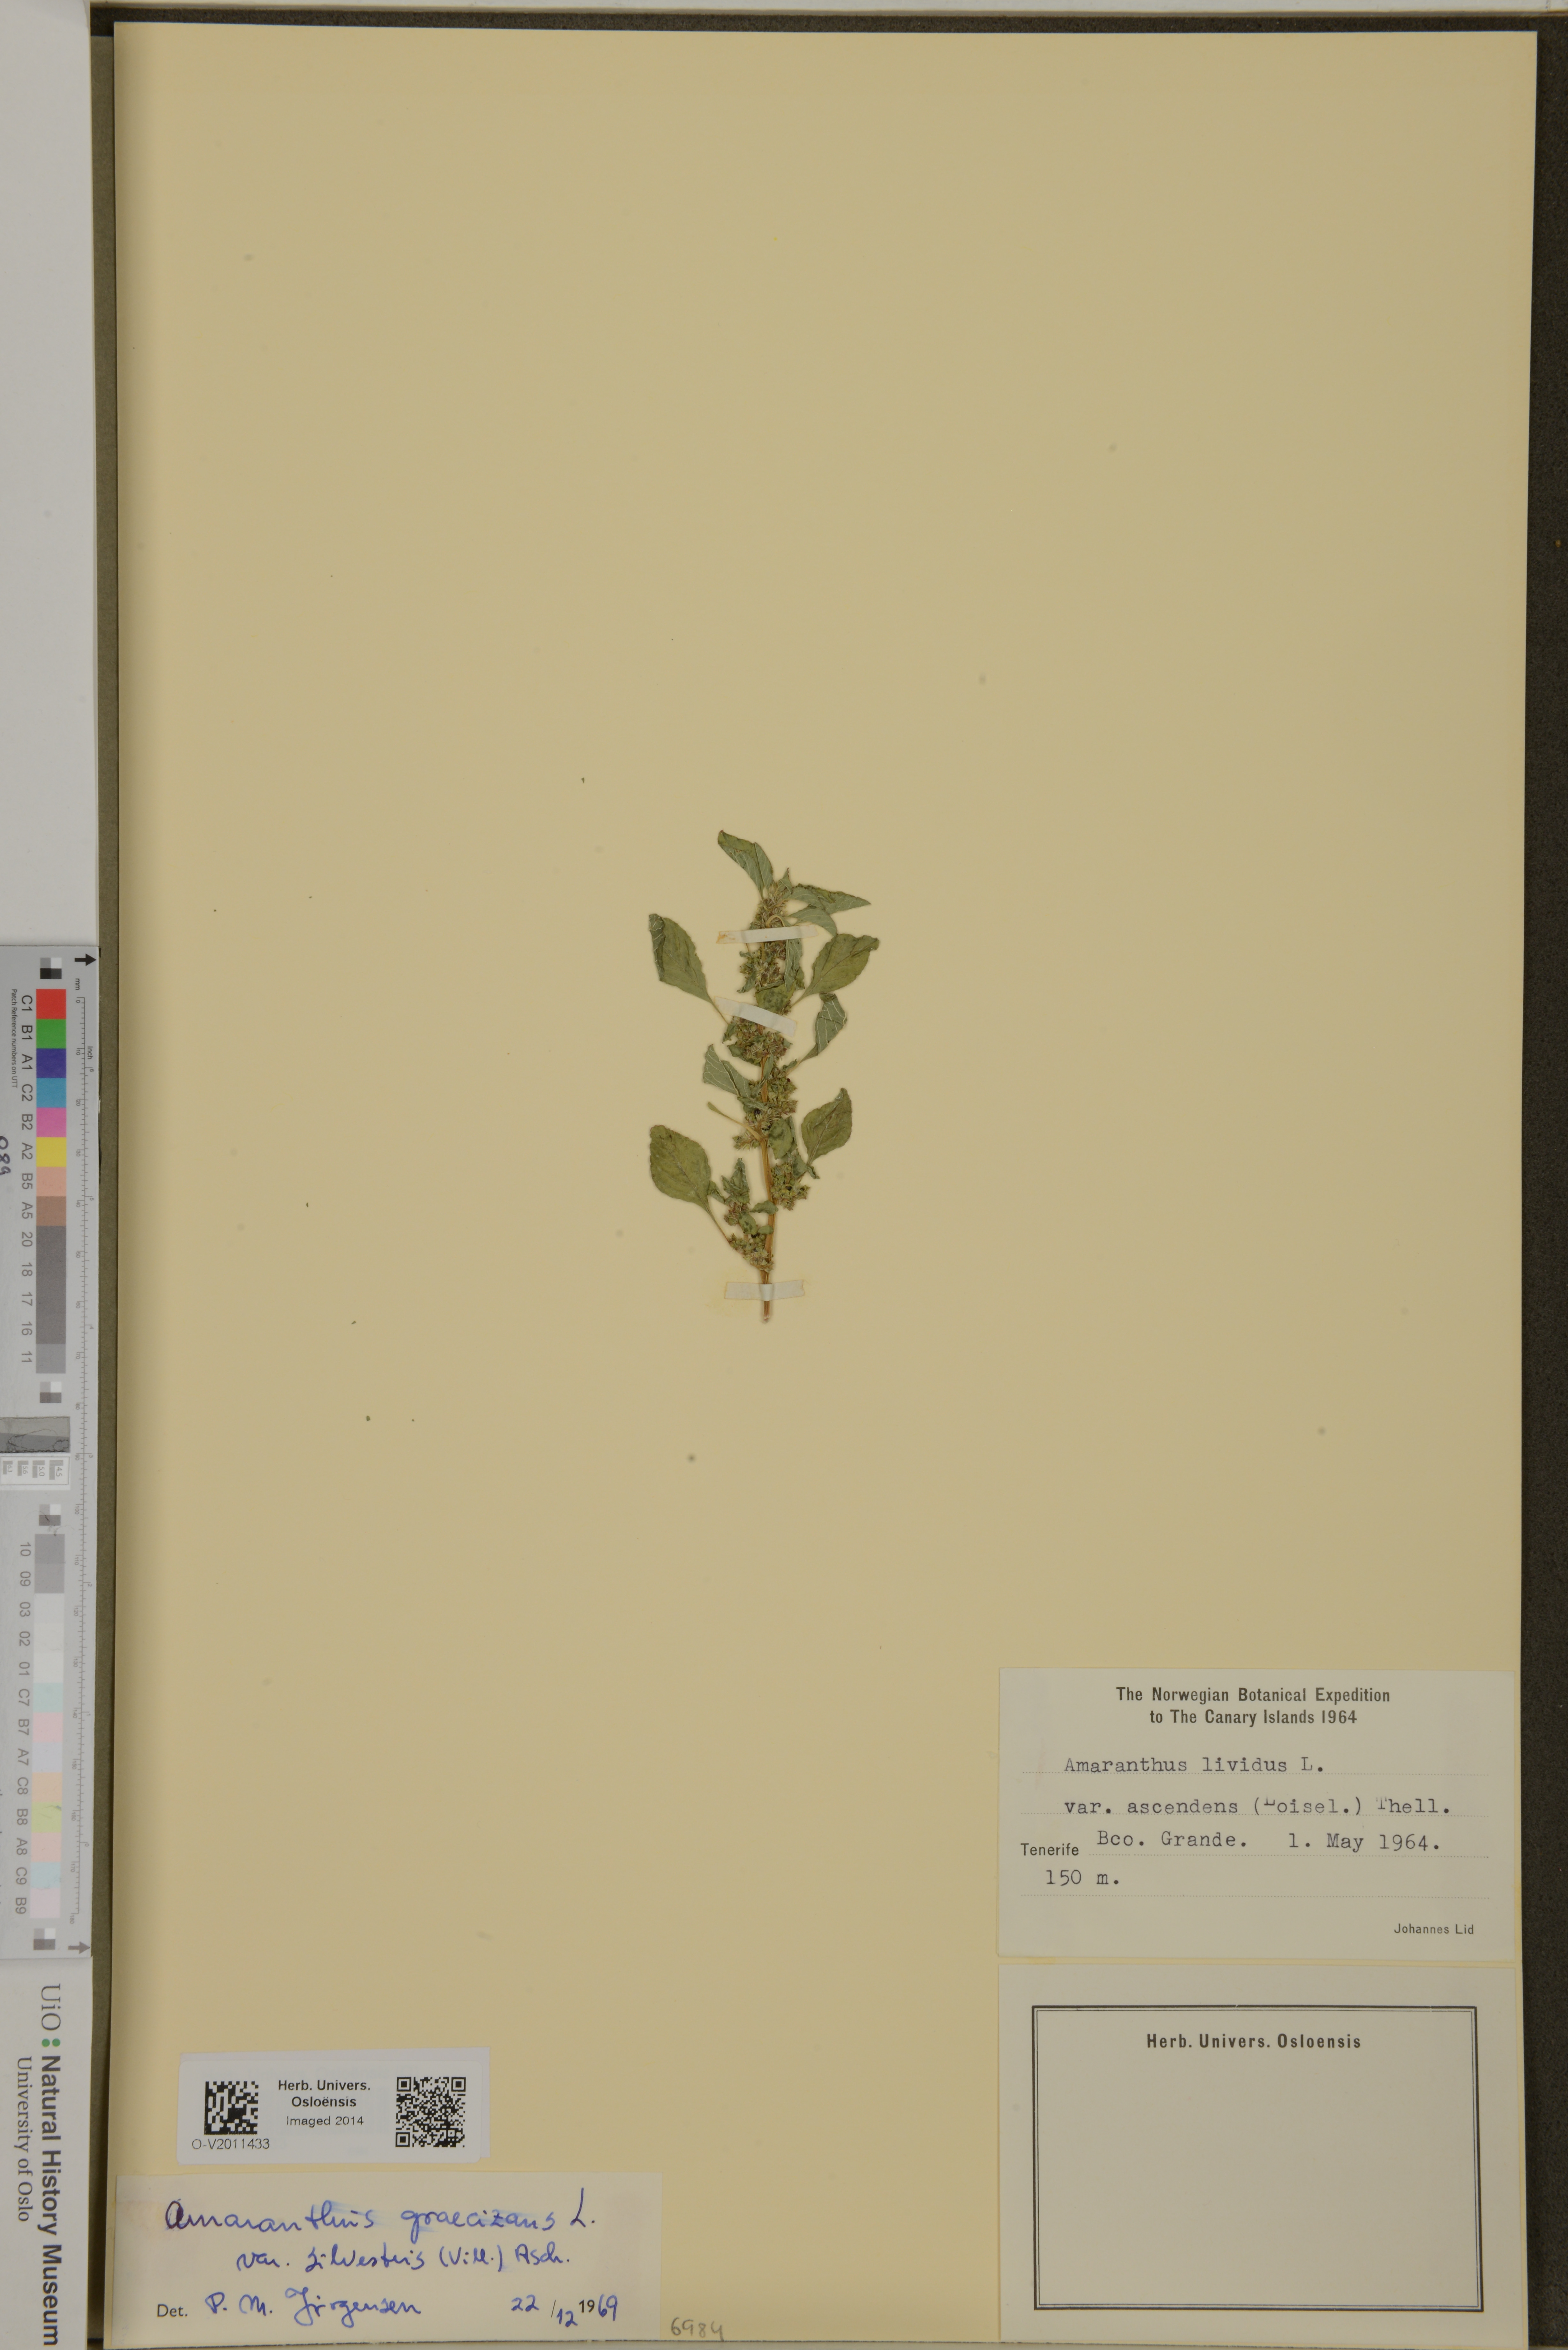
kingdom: Plantae
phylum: Tracheophyta
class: Magnoliopsida
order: Caryophyllales
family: Amaranthaceae
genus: Amaranthus
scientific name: Amaranthus graecizans
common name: Mediterranean amaranth
